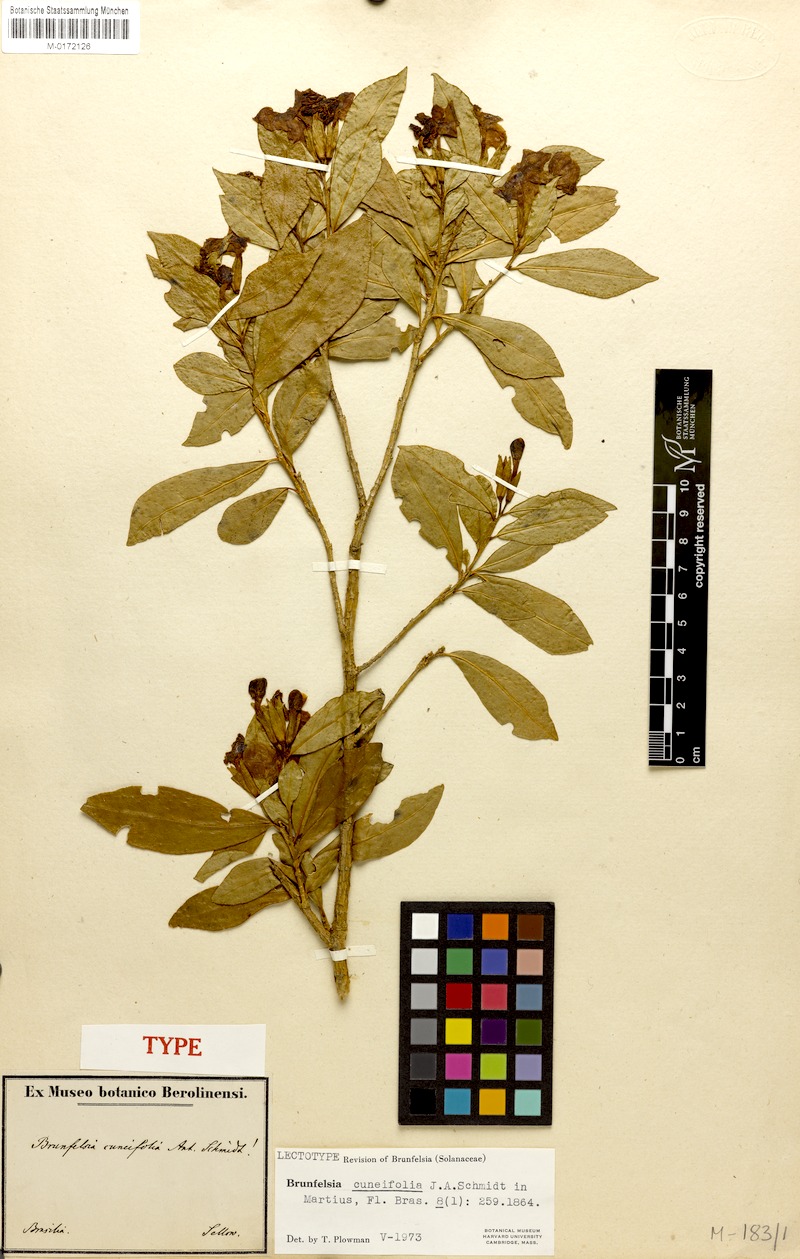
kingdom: Plantae
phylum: Tracheophyta
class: Magnoliopsida
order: Solanales
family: Solanaceae
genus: Brunfelsia
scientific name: Brunfelsia cuneifolia
